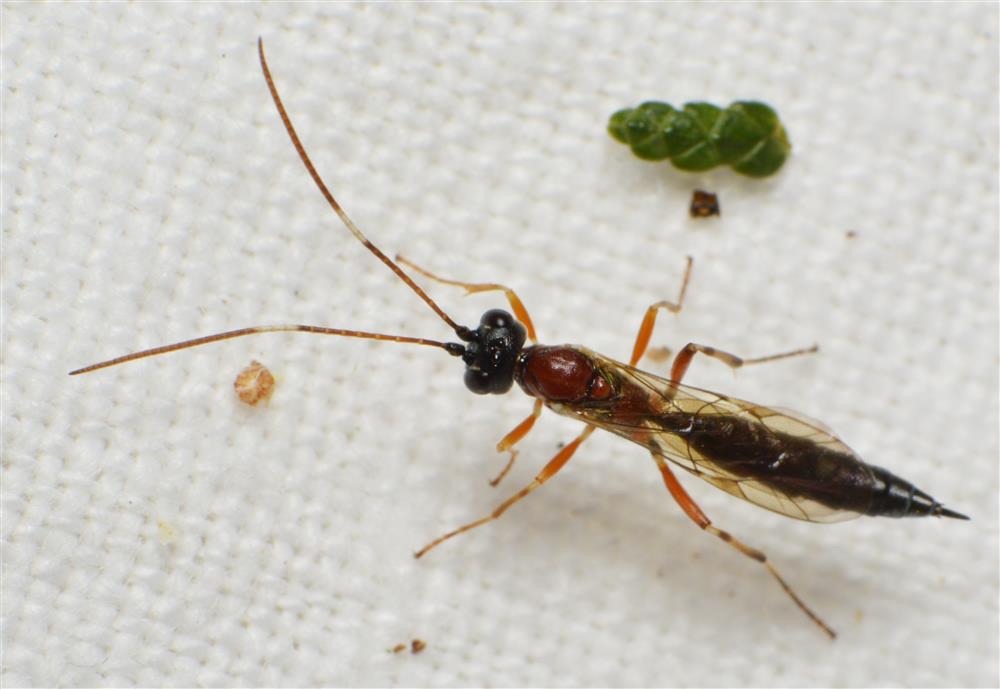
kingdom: Animalia
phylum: Arthropoda
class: Insecta
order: Hymenoptera
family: Ichneumonidae
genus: Heterischnus
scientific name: Heterischnus truncator
